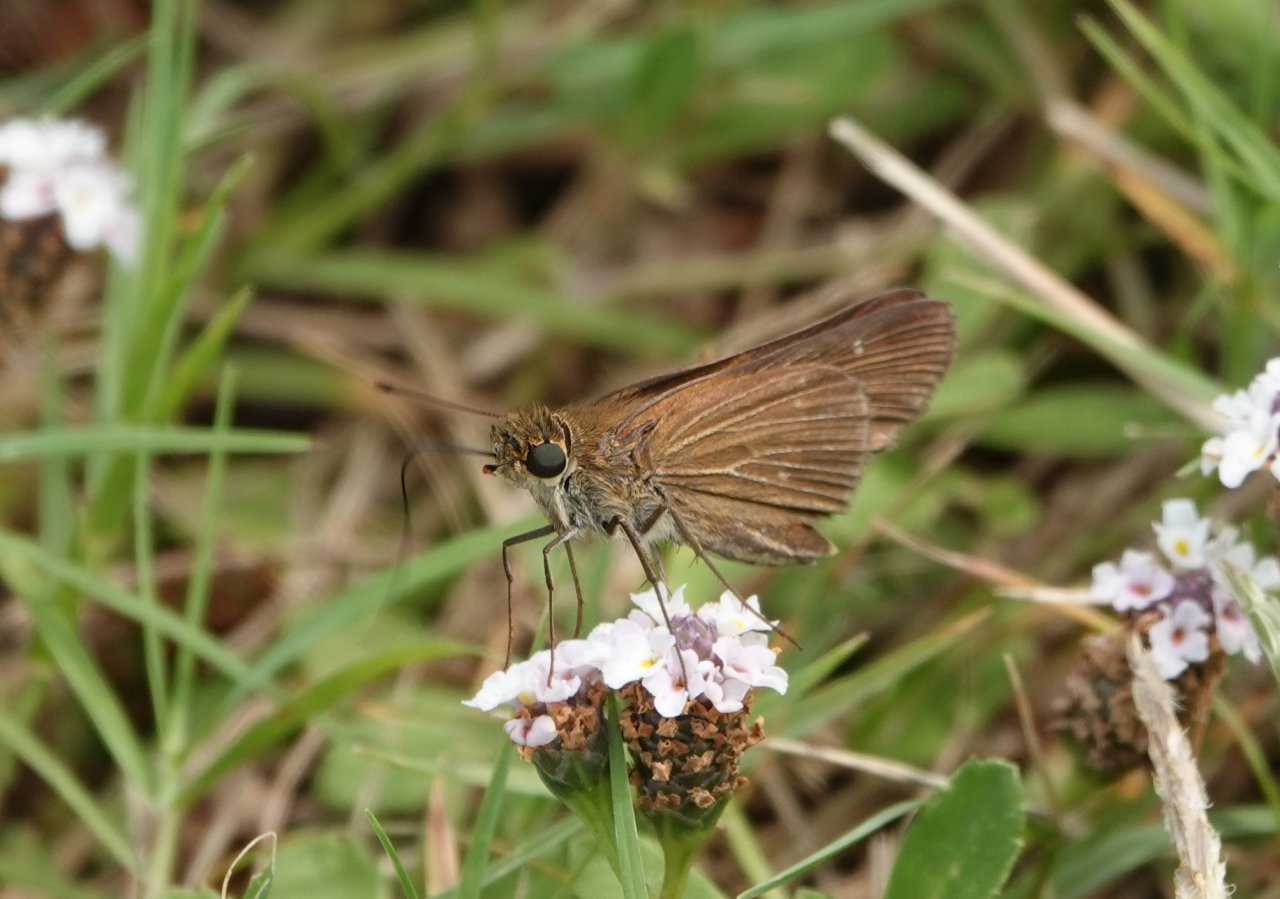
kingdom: Animalia
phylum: Arthropoda
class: Insecta
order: Lepidoptera
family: Hesperiidae
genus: Panoquina
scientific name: Panoquina ocola
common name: Ocola Skipper
